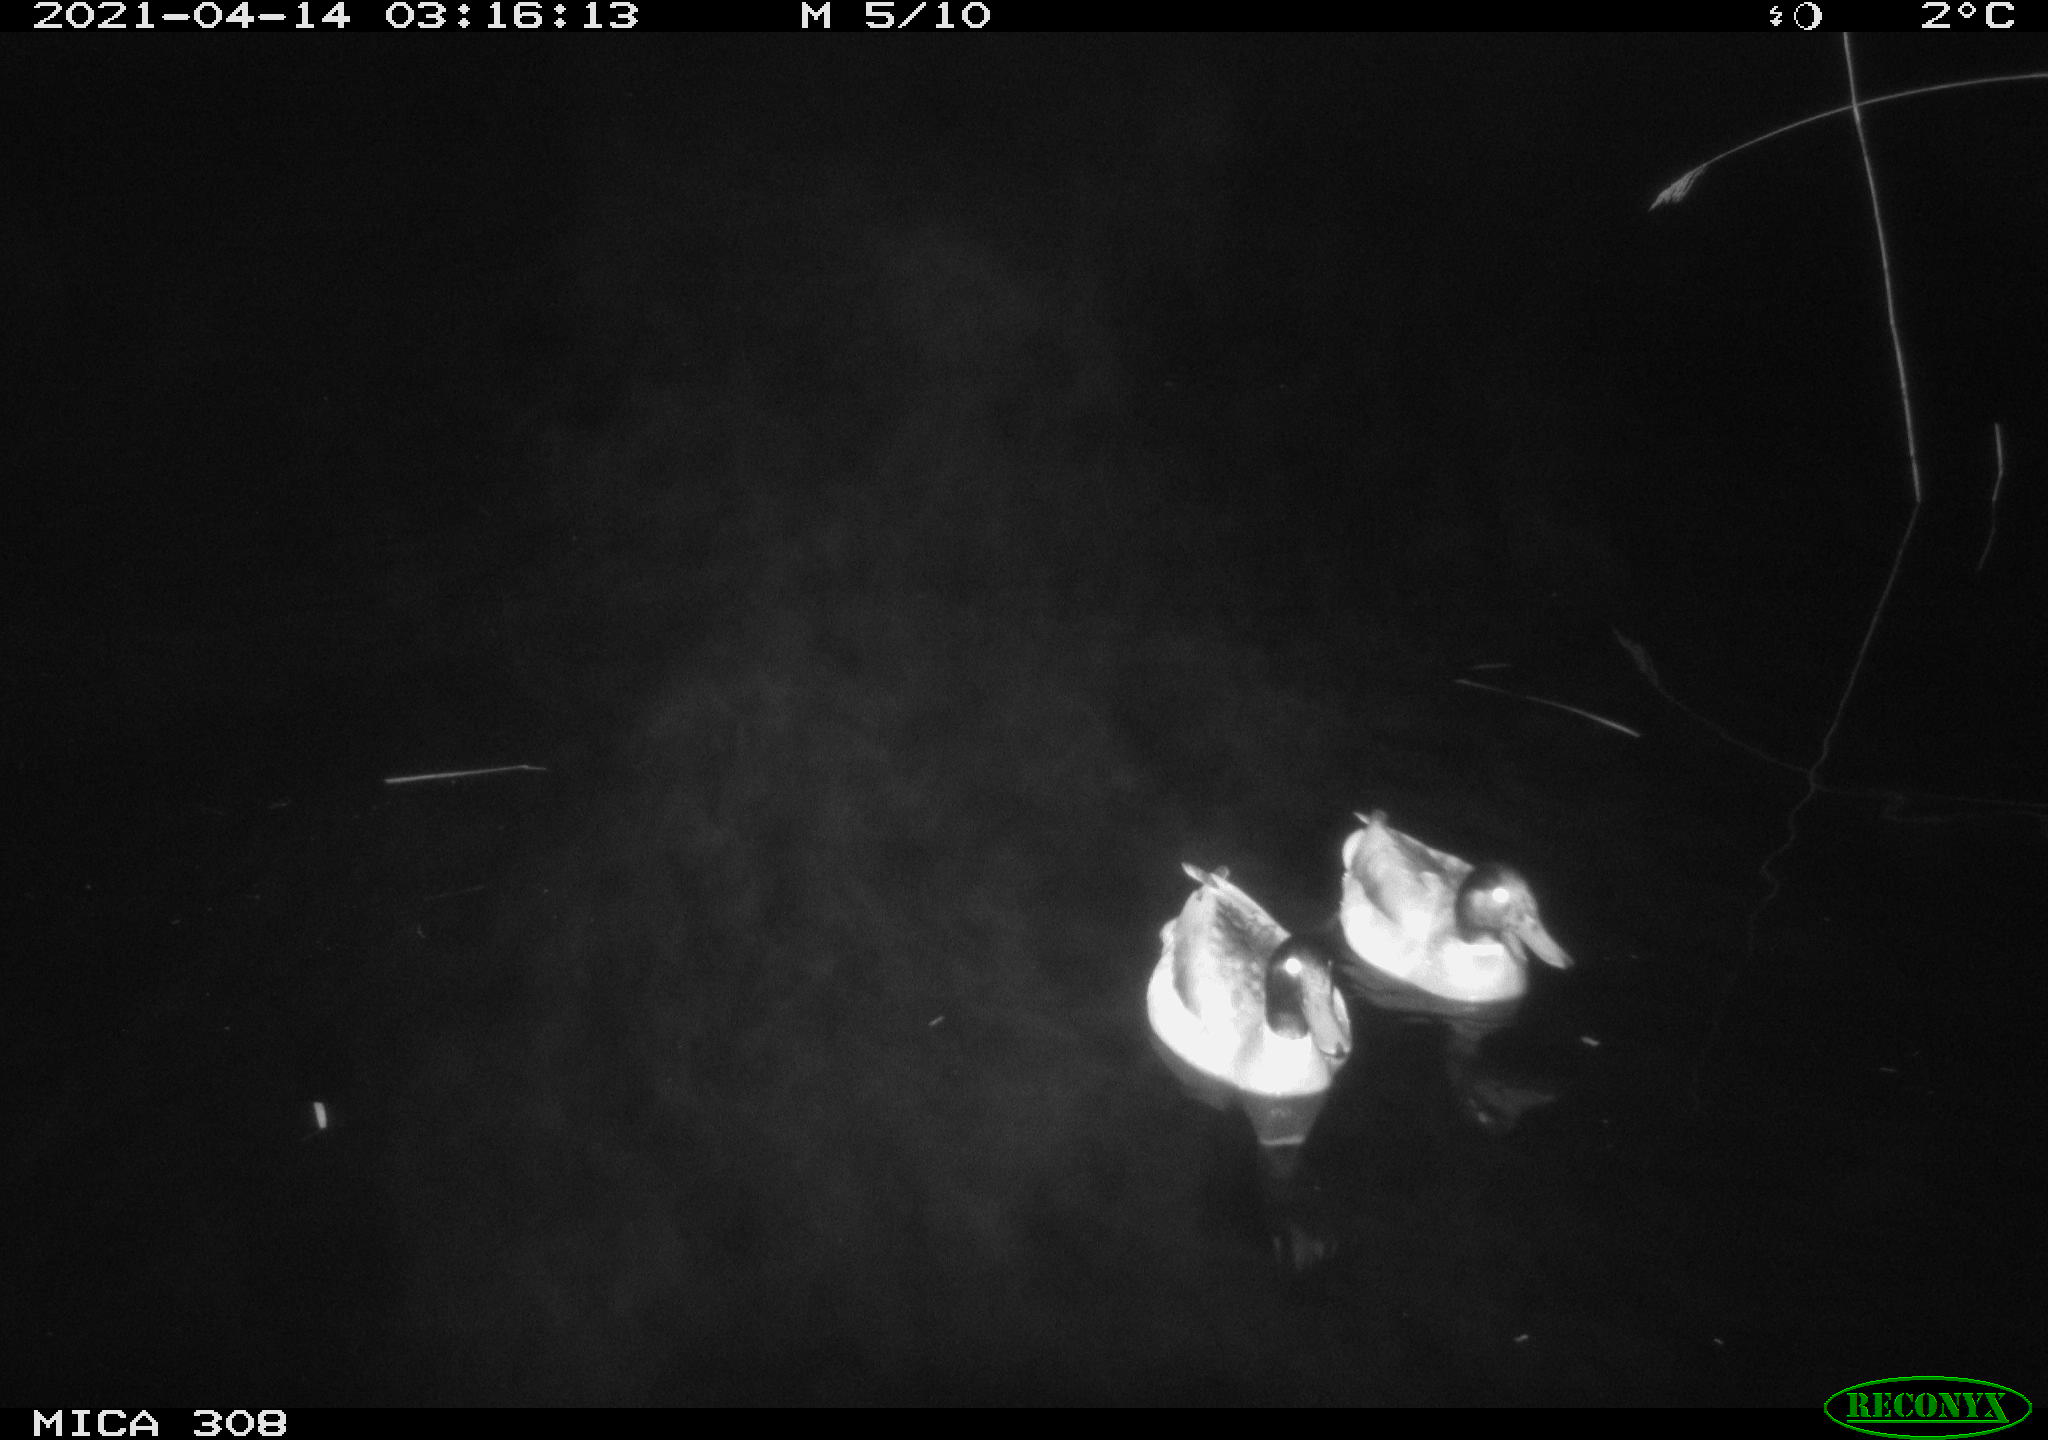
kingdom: Animalia
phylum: Chordata
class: Aves
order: Anseriformes
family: Anatidae
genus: Anas
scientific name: Anas platyrhynchos
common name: Mallard
